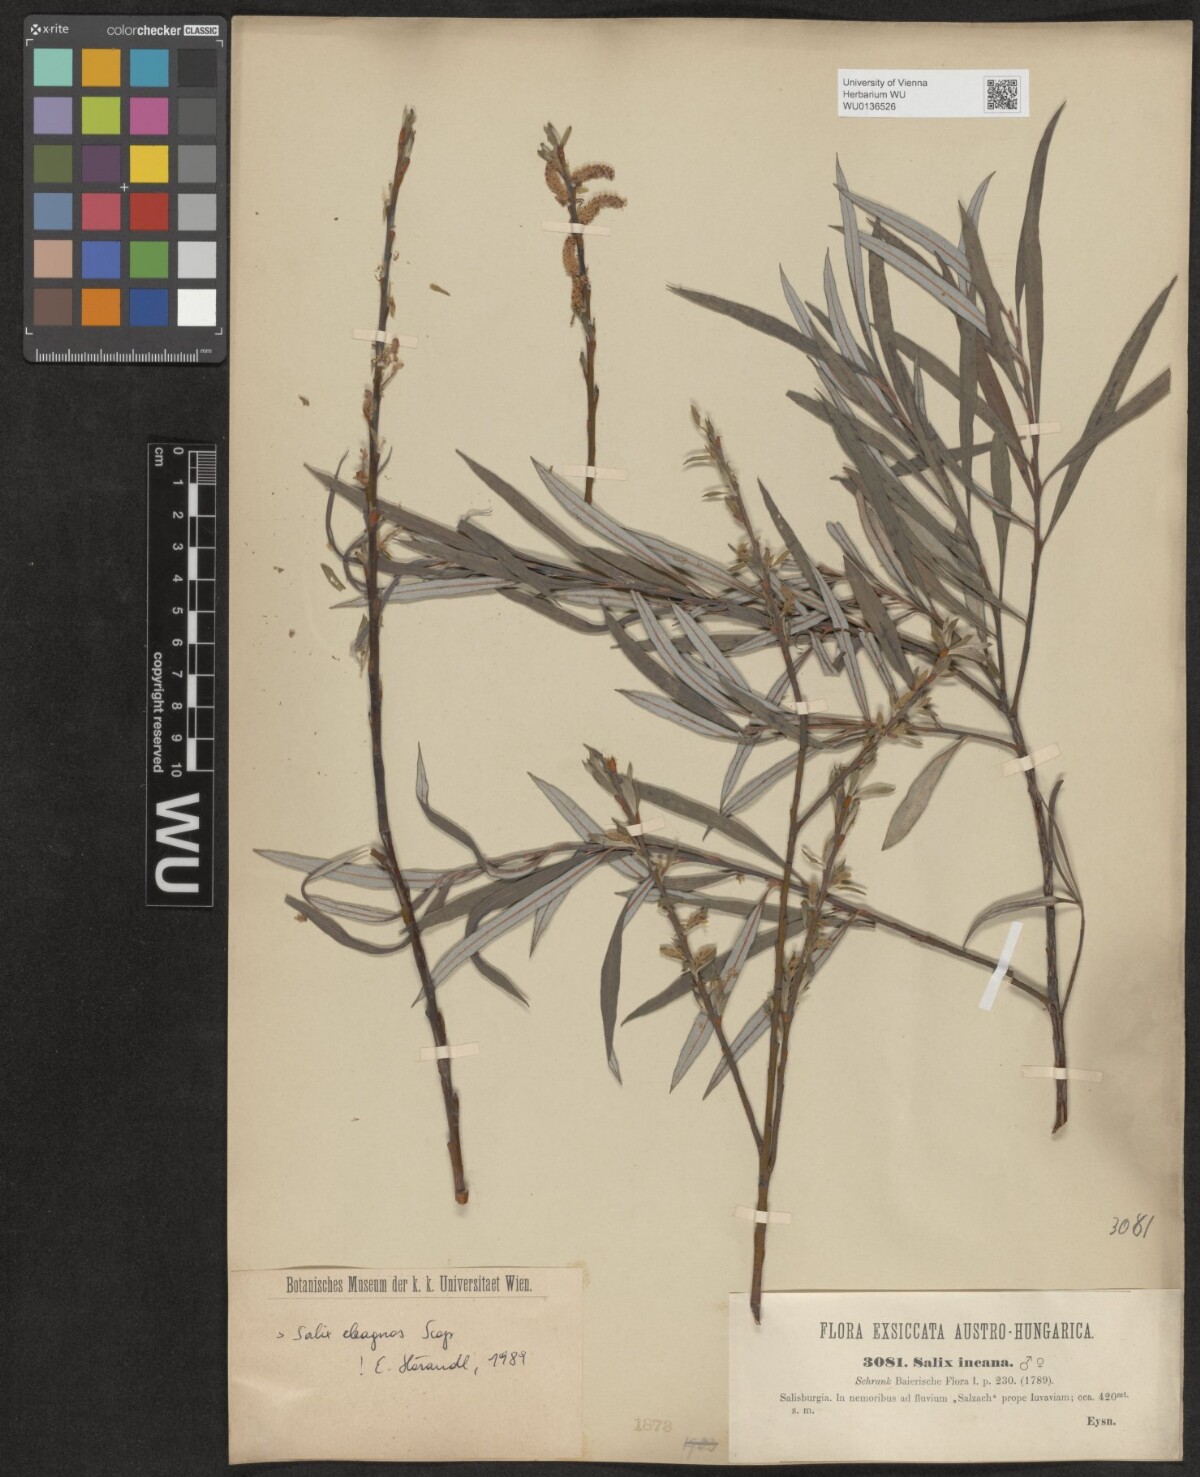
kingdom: Plantae
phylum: Tracheophyta
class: Magnoliopsida
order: Malpighiales
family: Salicaceae
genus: Salix
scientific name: Salix eleagnos
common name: Elaeagnus willow
